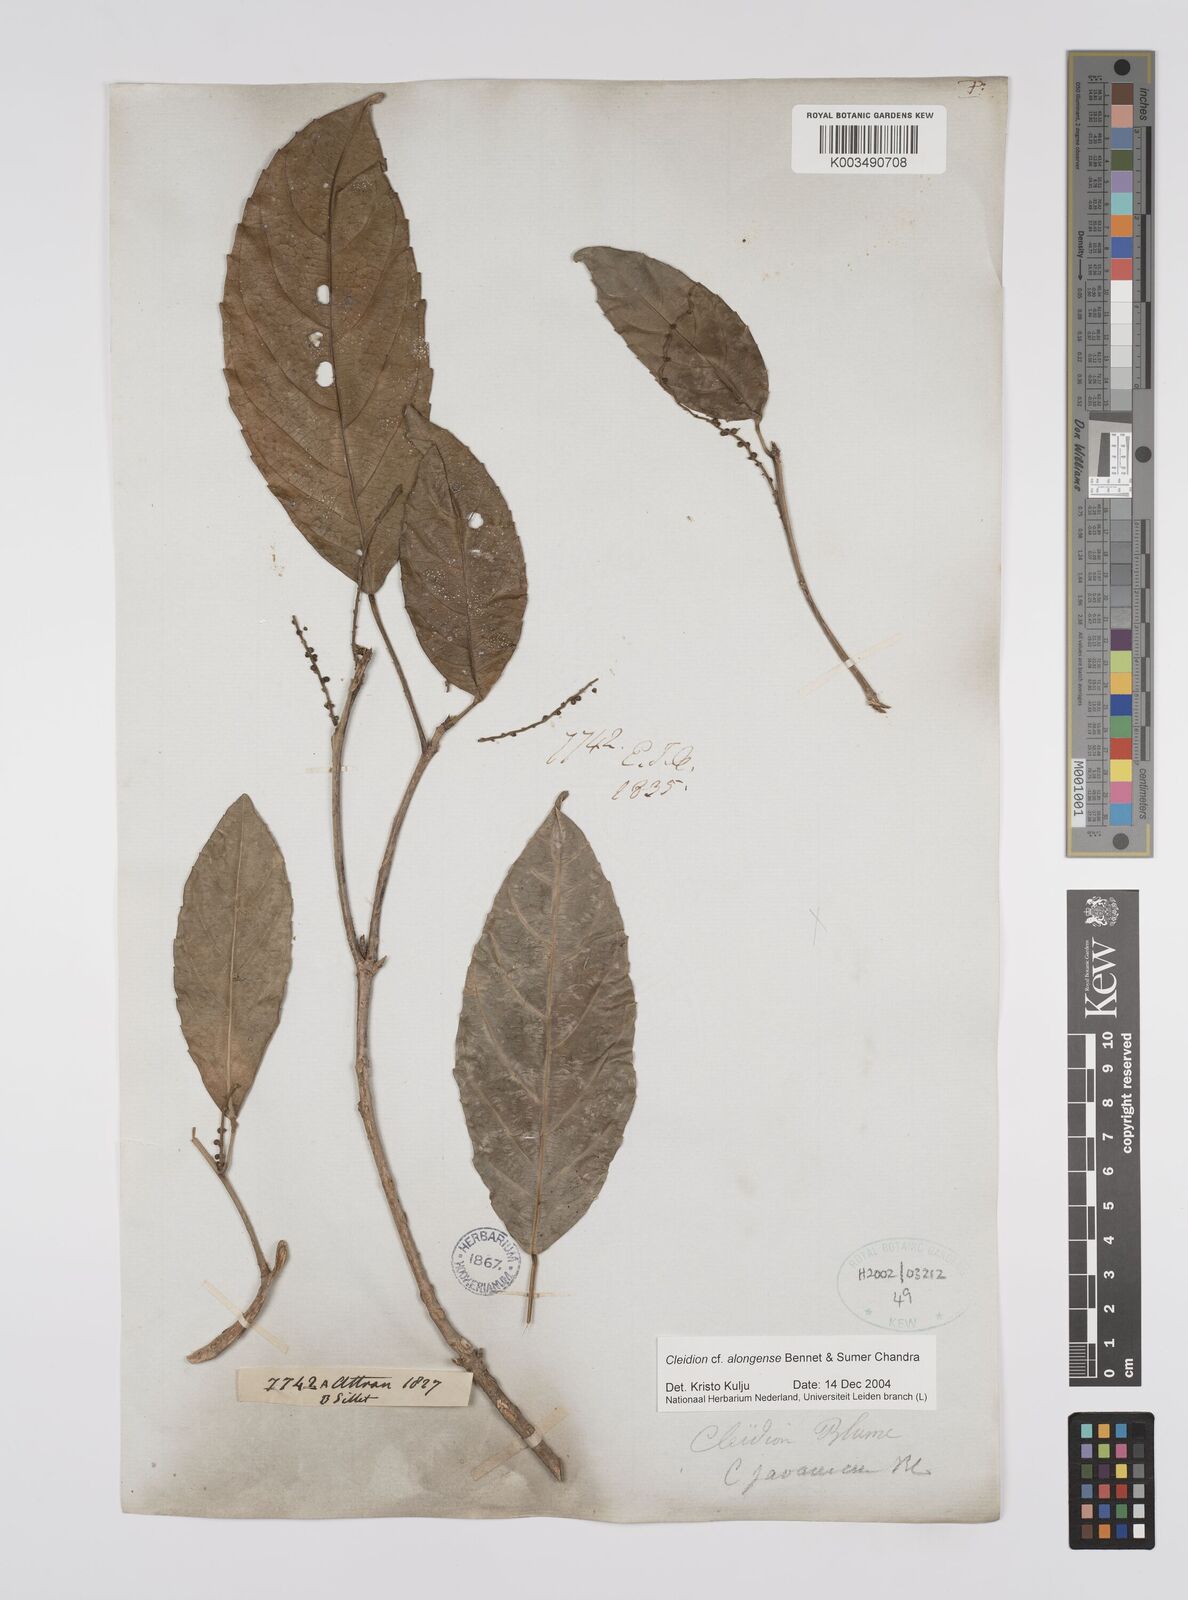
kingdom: Plantae
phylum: Tracheophyta
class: Magnoliopsida
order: Malpighiales
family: Euphorbiaceae
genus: Cleidion
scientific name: Cleidion javanicum
